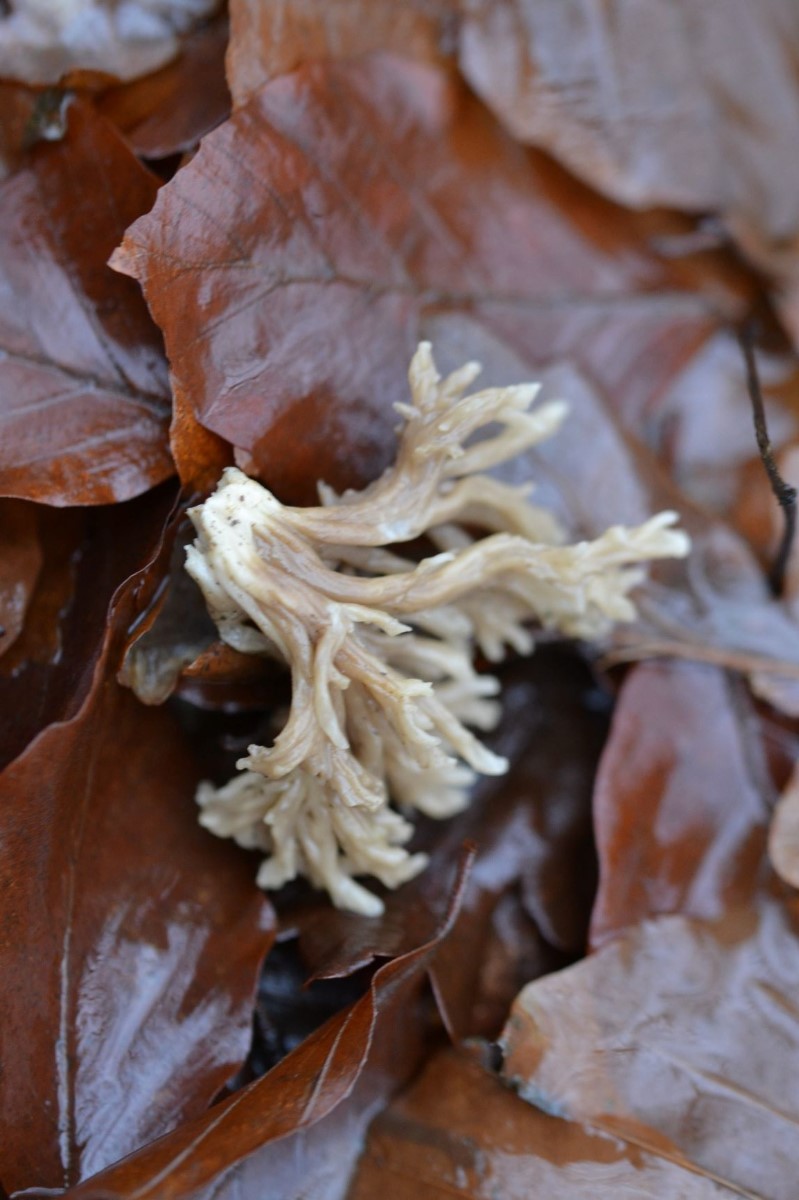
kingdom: Fungi
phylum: Basidiomycota
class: Agaricomycetes
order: Cantharellales
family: Hydnaceae
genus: Clavulina
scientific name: Clavulina
